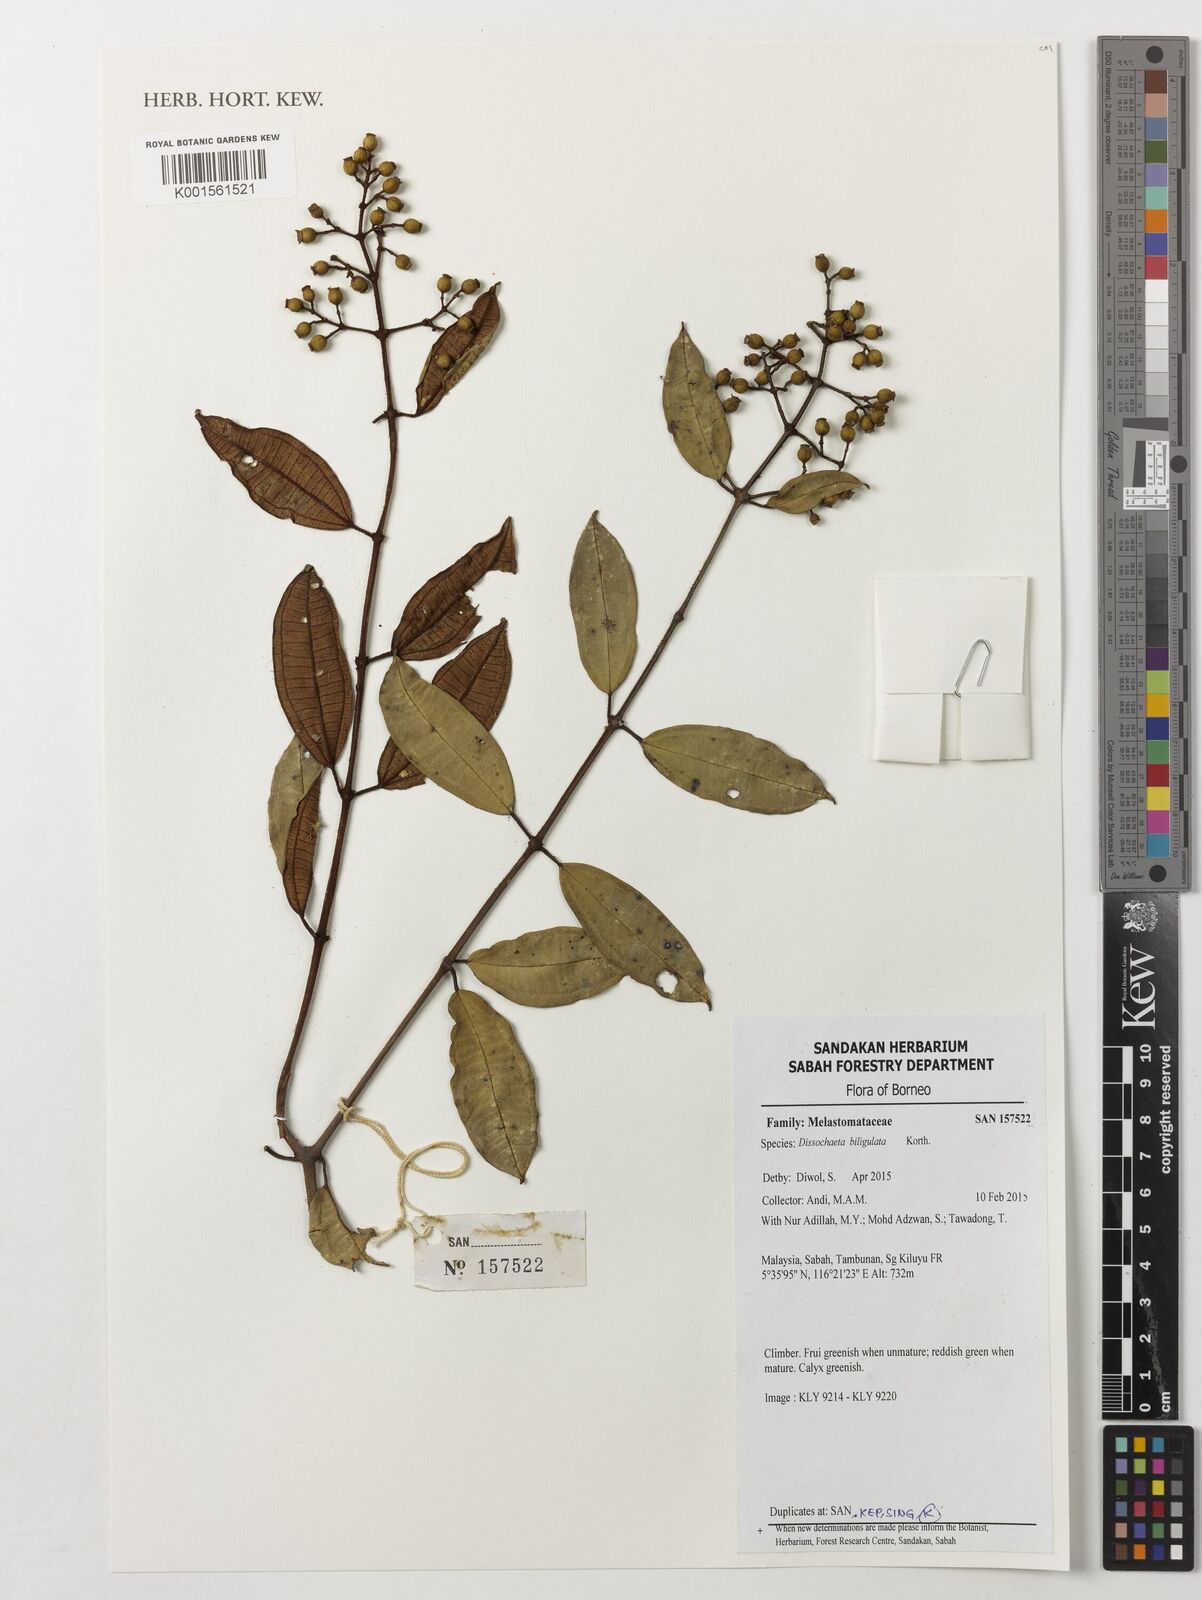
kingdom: Plantae
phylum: Tracheophyta
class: Magnoliopsida
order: Myrtales
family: Melastomataceae
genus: Dissochaeta
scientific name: Dissochaeta biligulata
